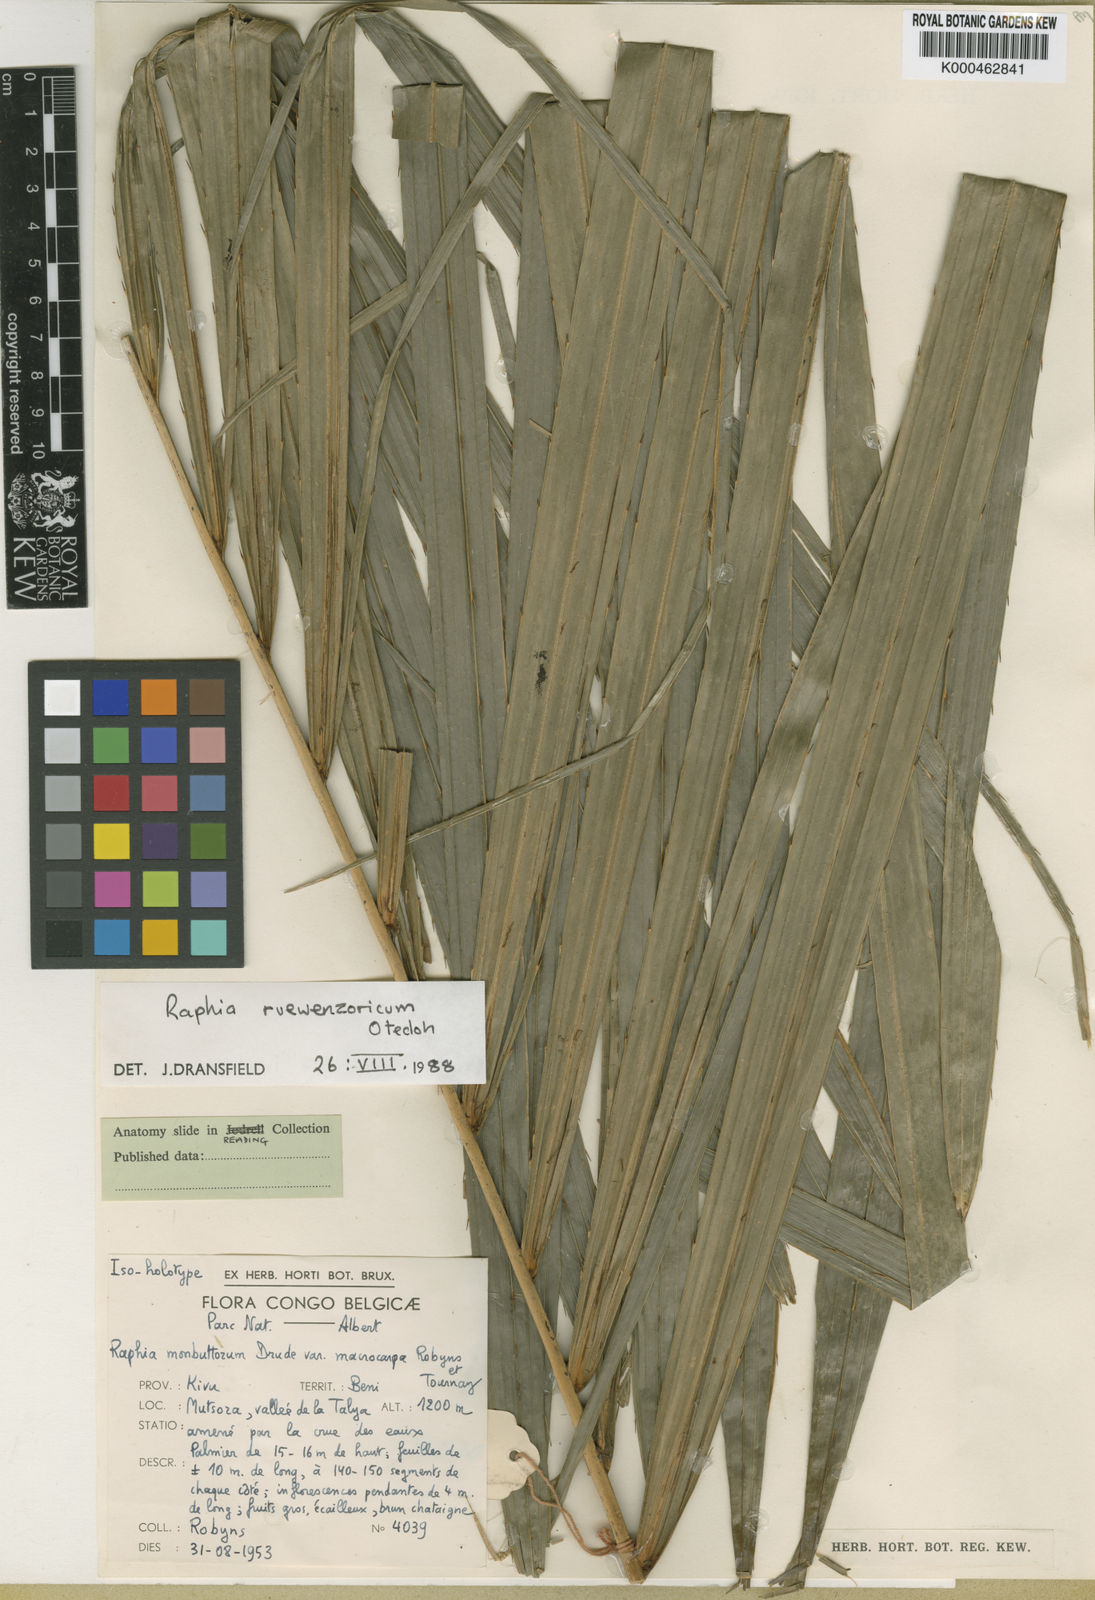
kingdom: Plantae
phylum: Tracheophyta
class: Liliopsida
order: Arecales
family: Arecaceae
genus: Raphia
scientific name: Raphia ruwenzorica
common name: Raphia palm
